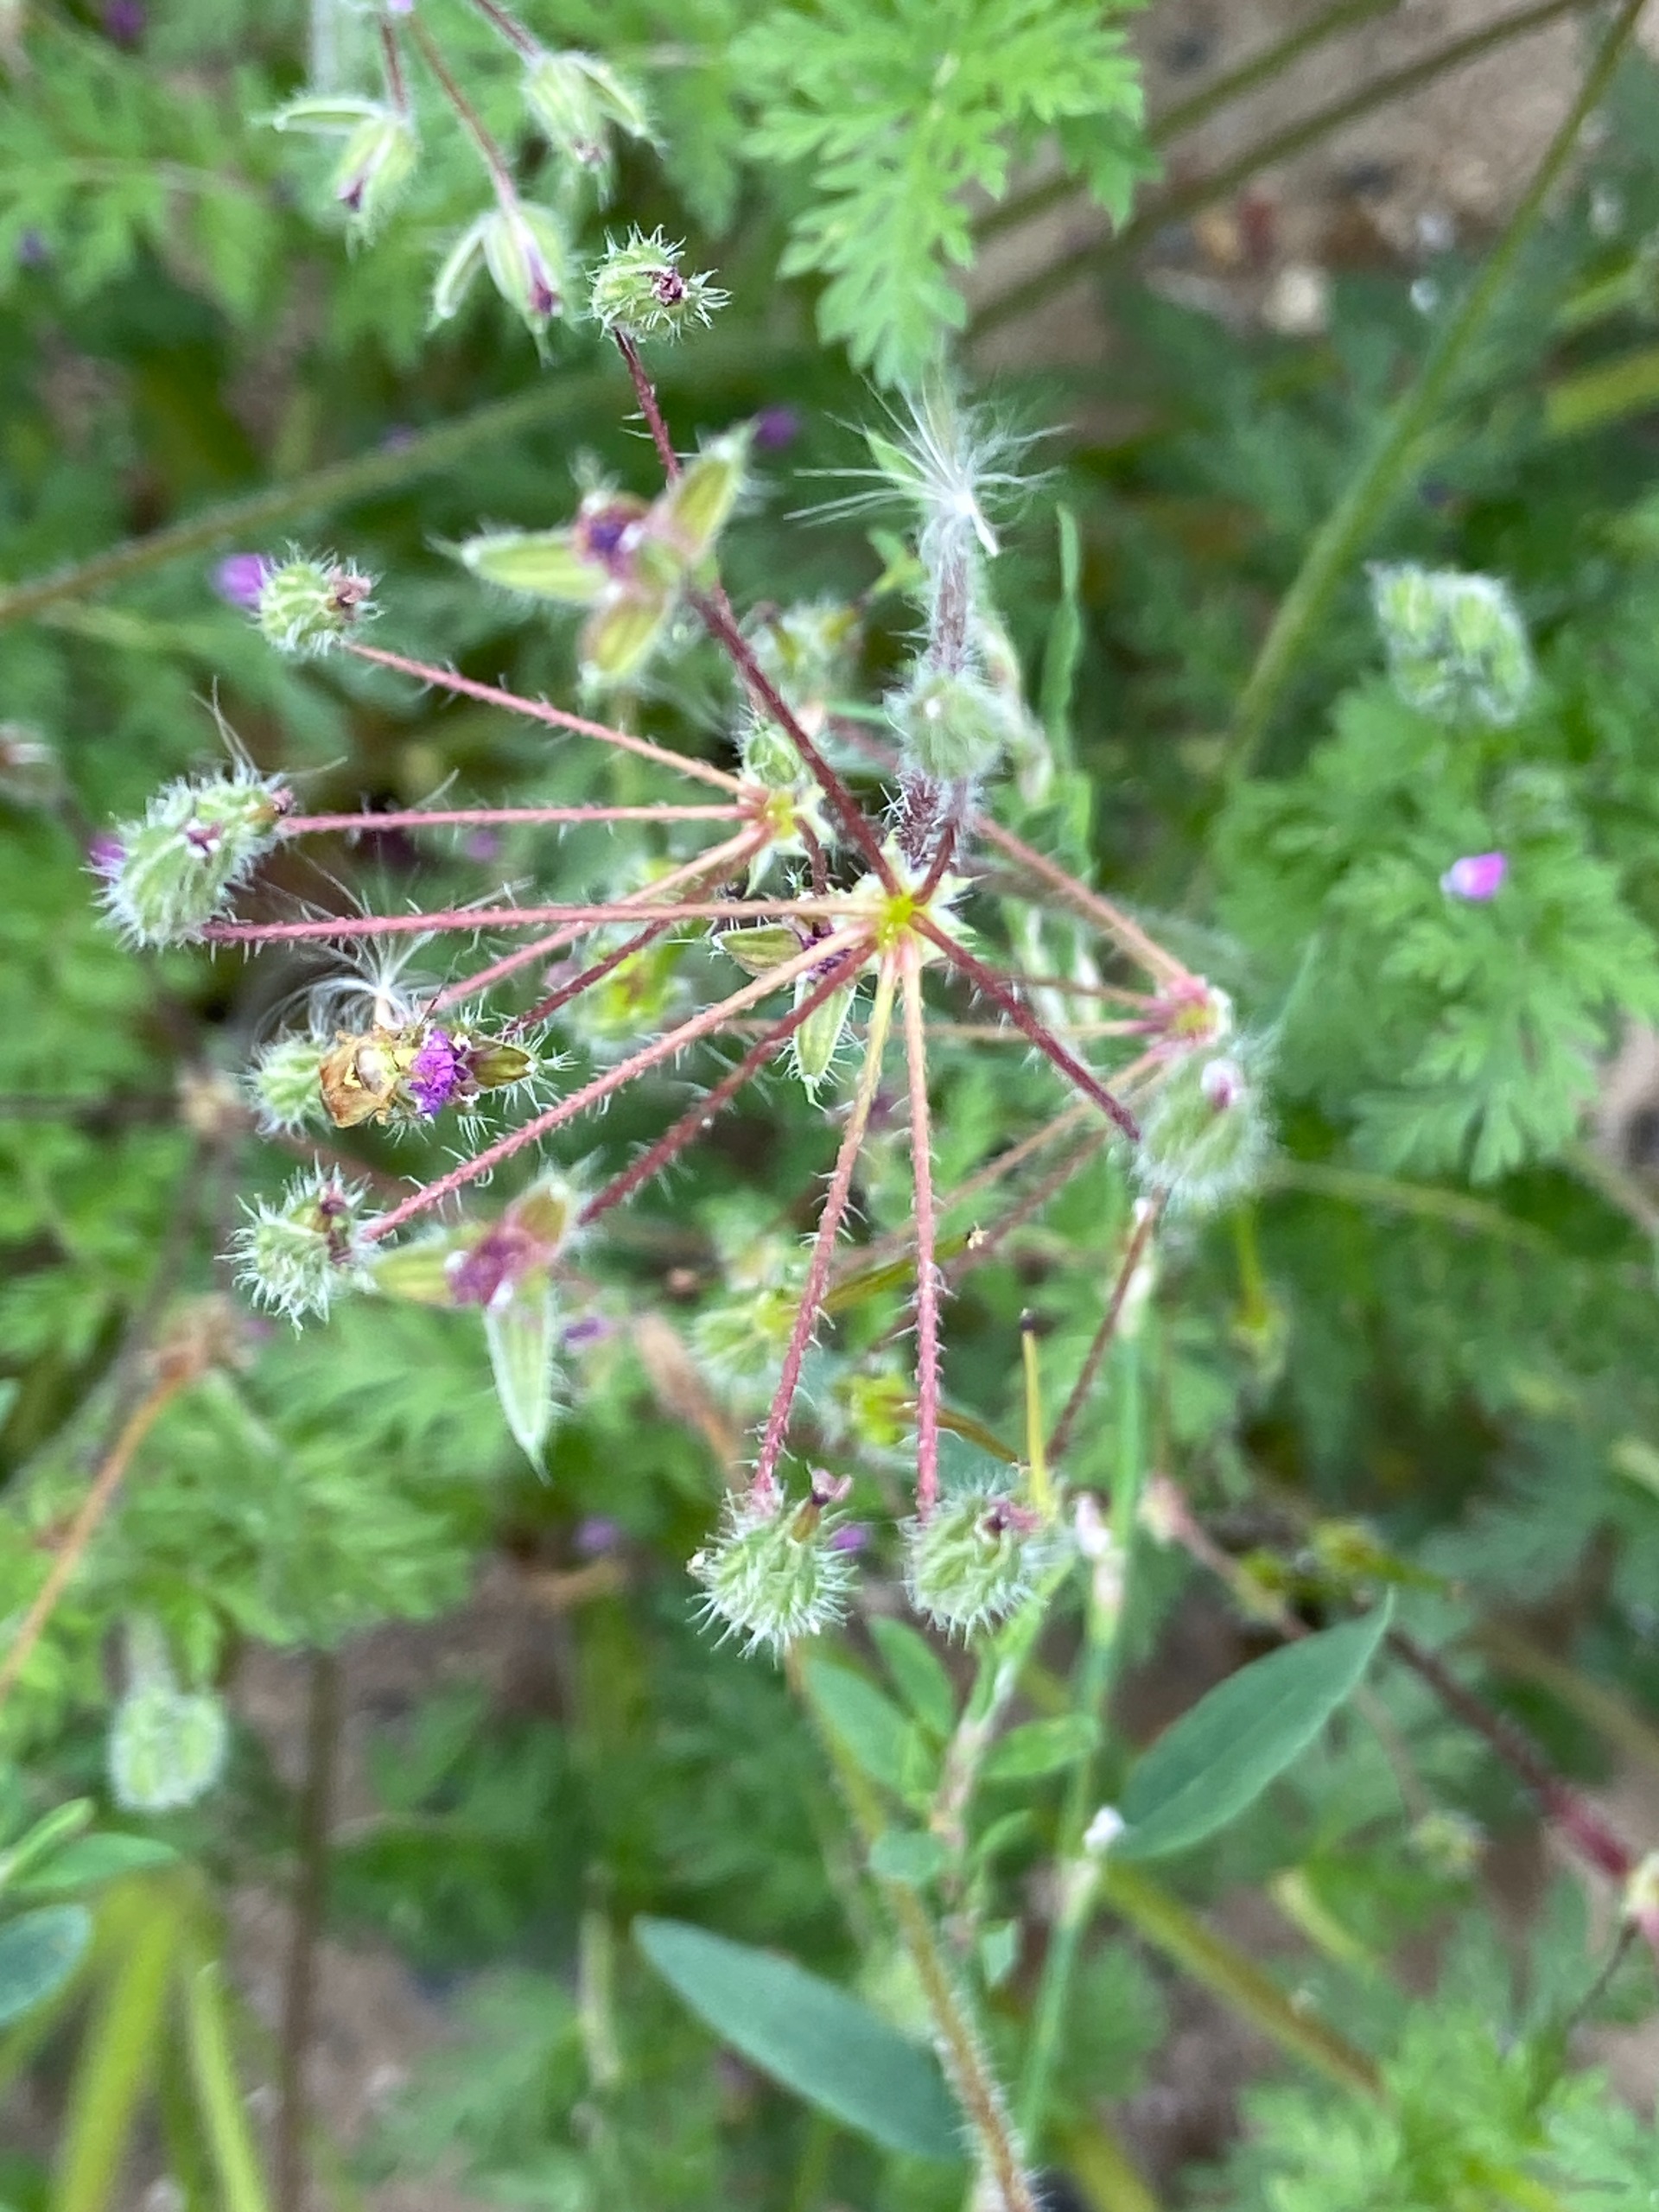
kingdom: Plantae
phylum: Tracheophyta
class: Magnoliopsida
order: Geraniales
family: Geraniaceae
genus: Erodium
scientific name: Erodium cicutarium
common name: Hejrenæb
